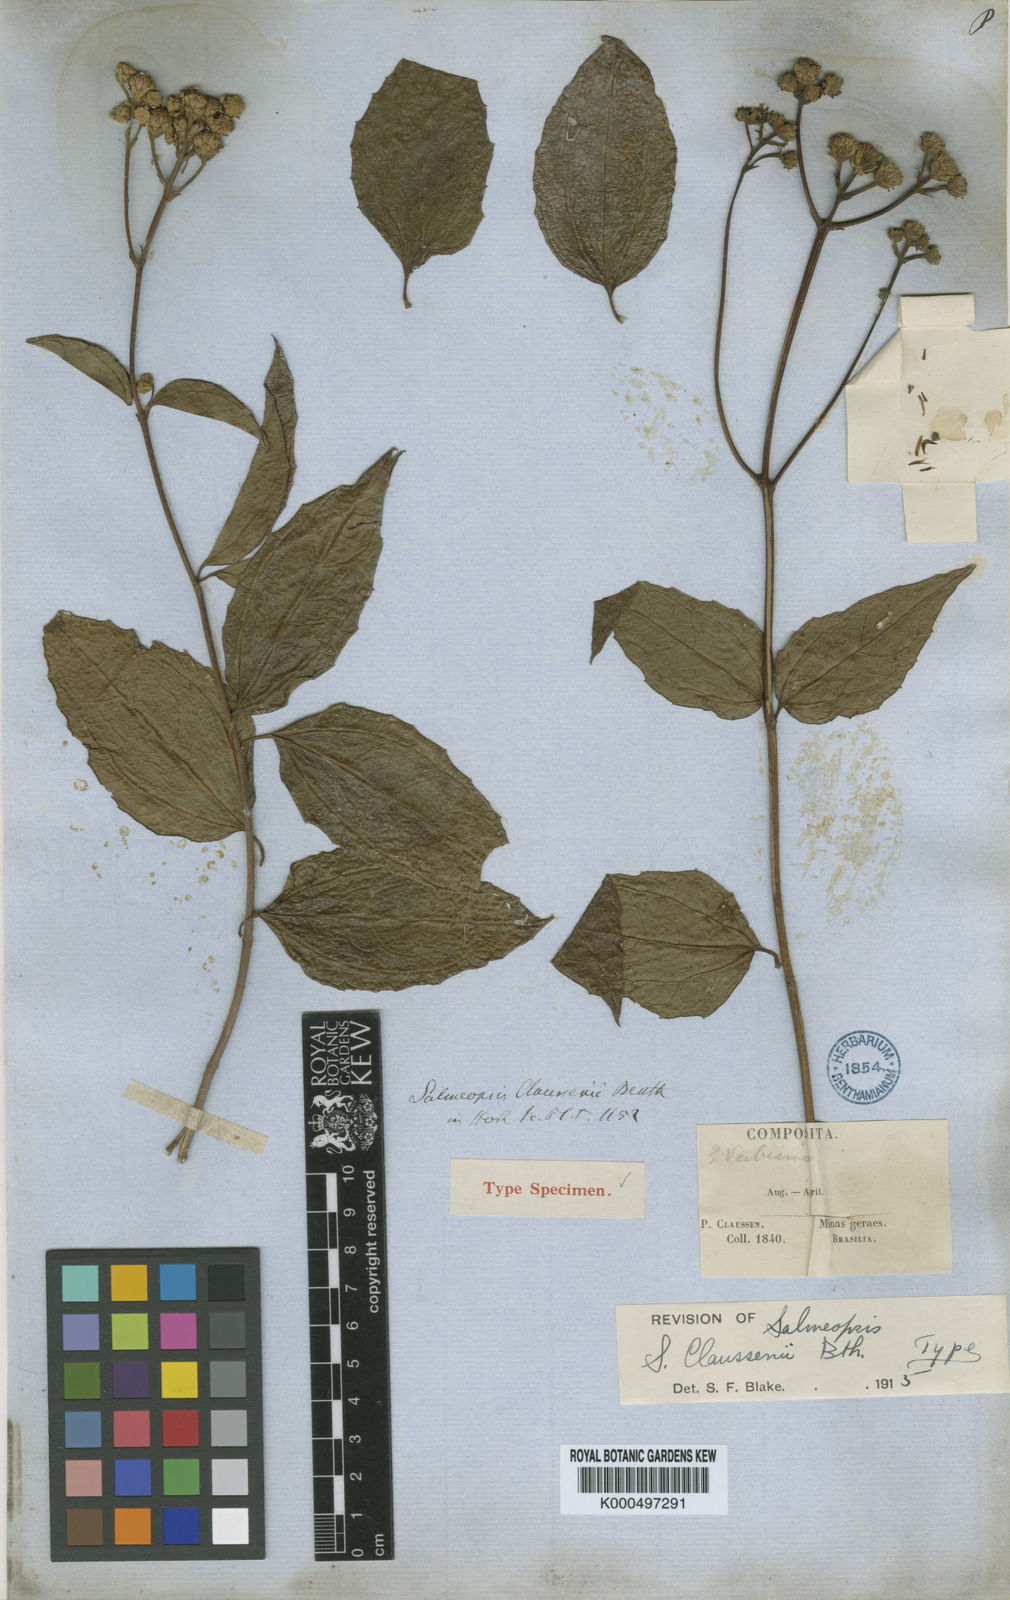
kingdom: Plantae
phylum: Tracheophyta
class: Magnoliopsida
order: Asterales
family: Asteraceae
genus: Salmea
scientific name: Salmea scandens
